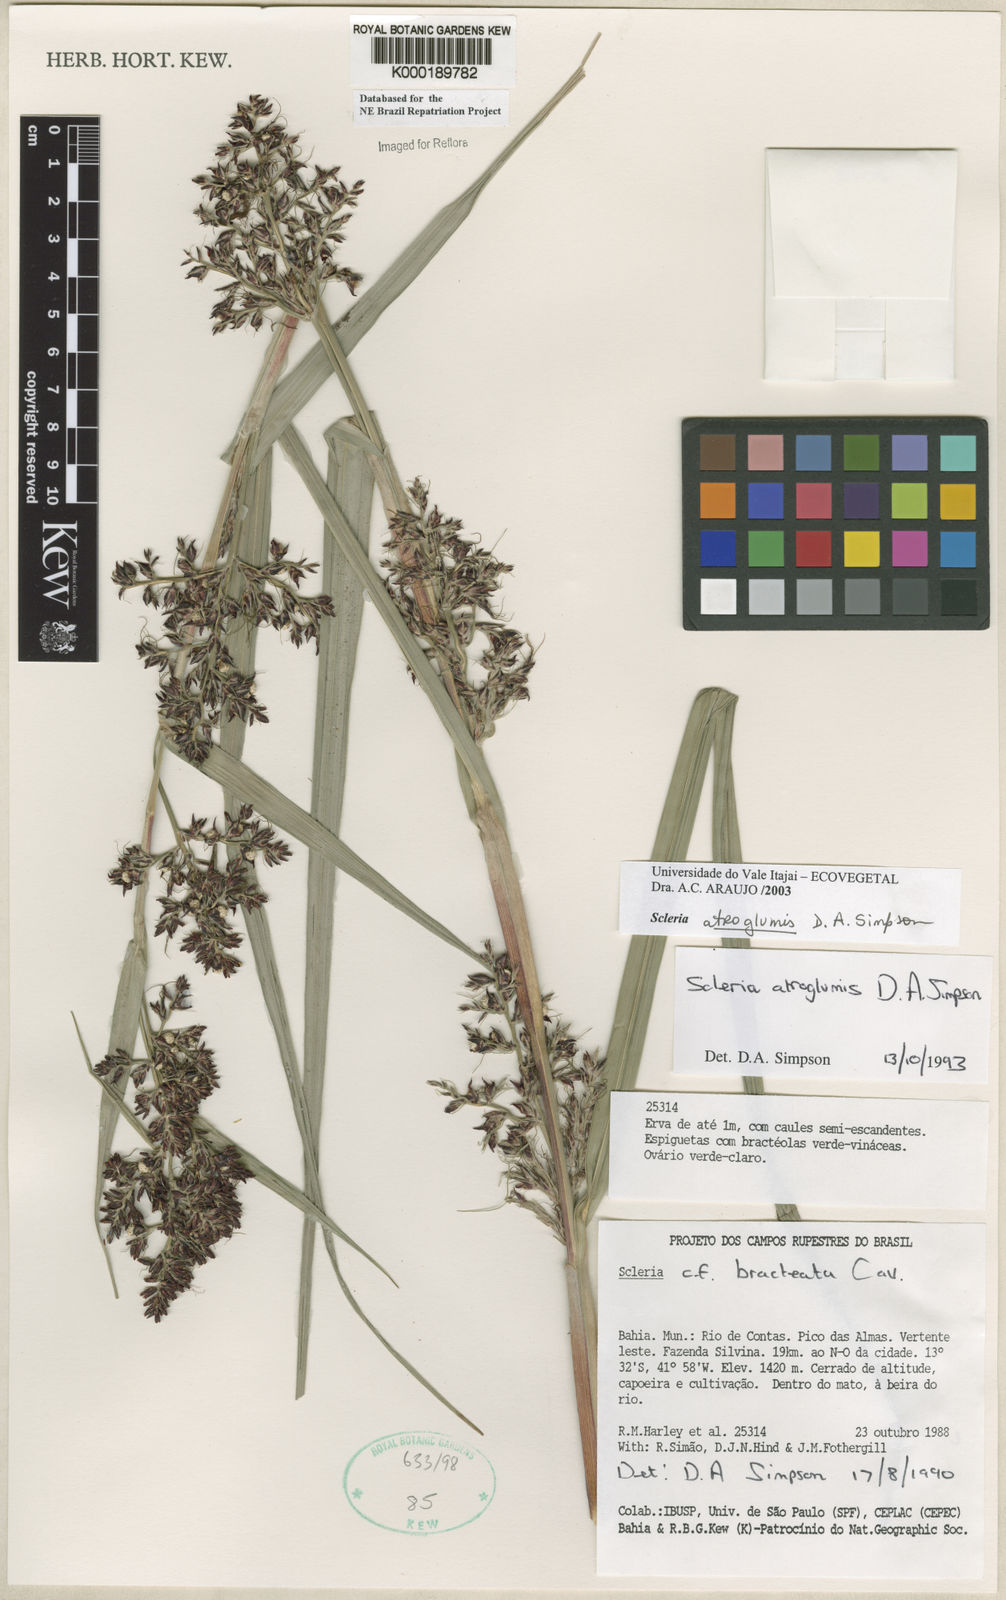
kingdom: Plantae
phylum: Tracheophyta
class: Liliopsida
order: Poales
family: Cyperaceae
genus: Scleria
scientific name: Scleria atroglumis
